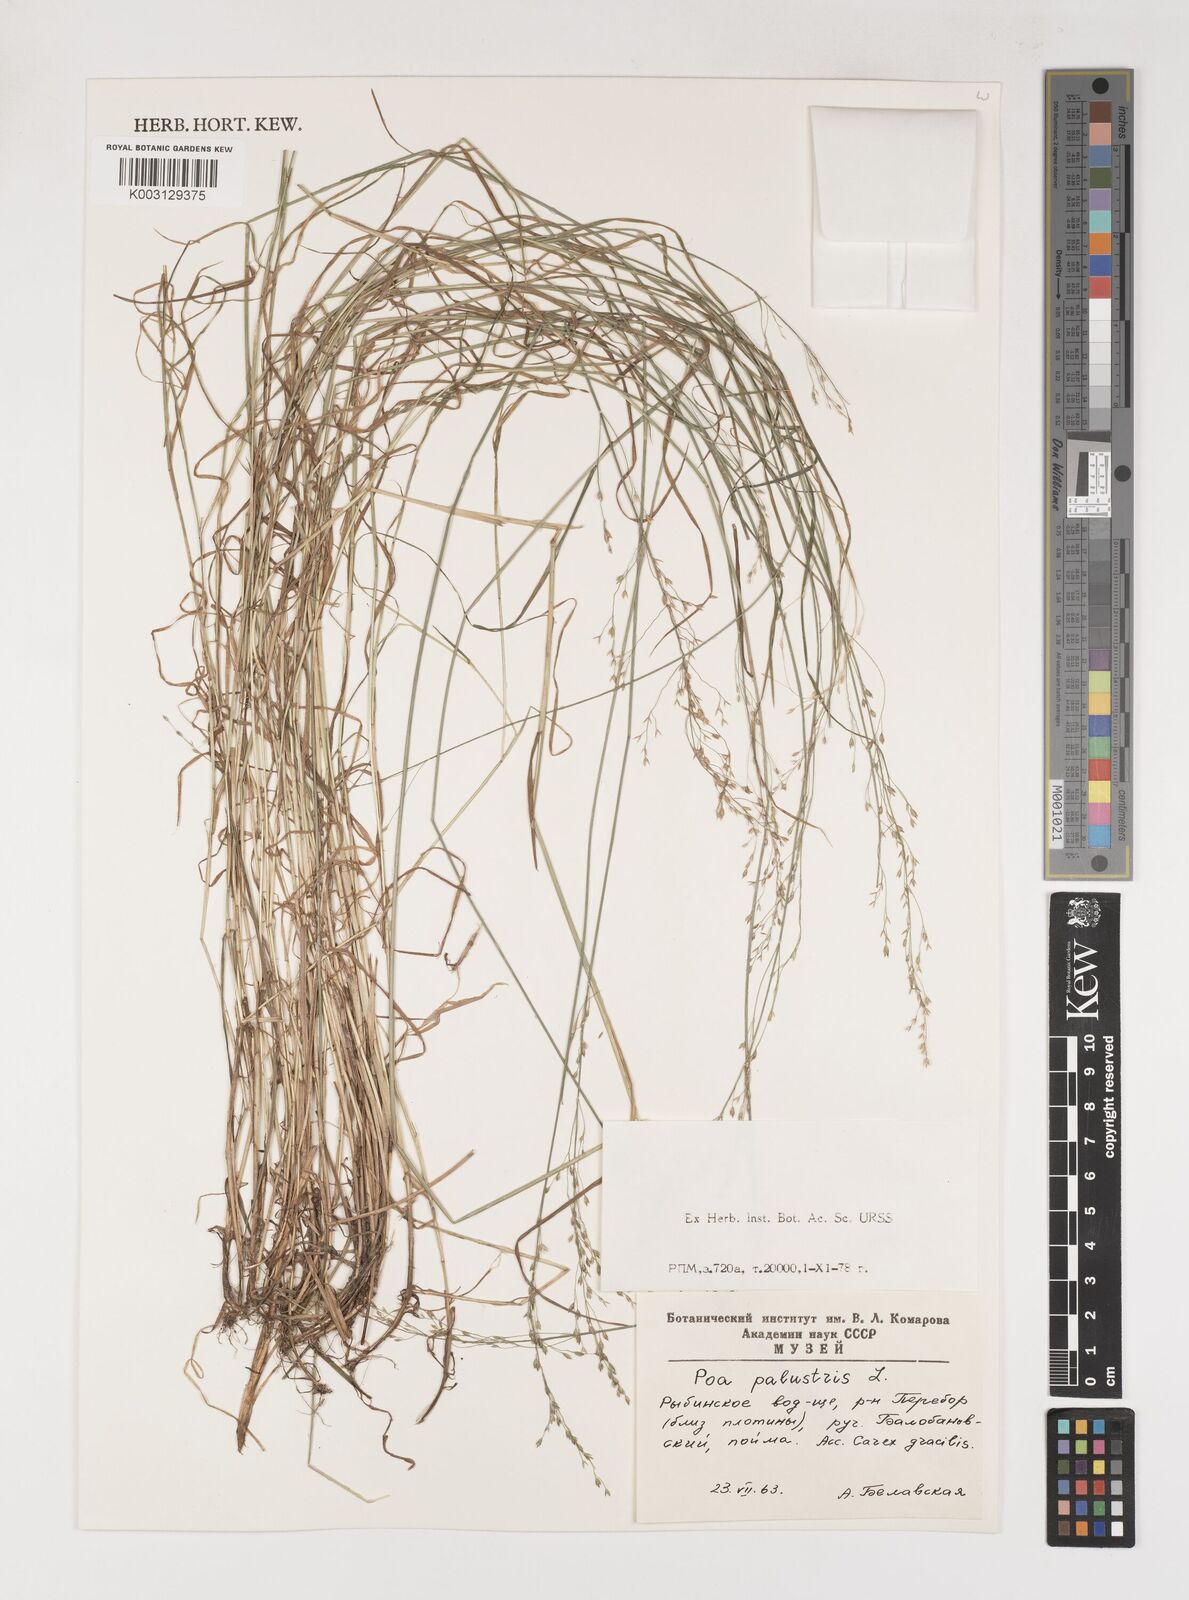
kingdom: Plantae
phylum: Tracheophyta
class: Liliopsida
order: Poales
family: Poaceae
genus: Poa
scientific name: Poa palustris
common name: Swamp meadow-grass
